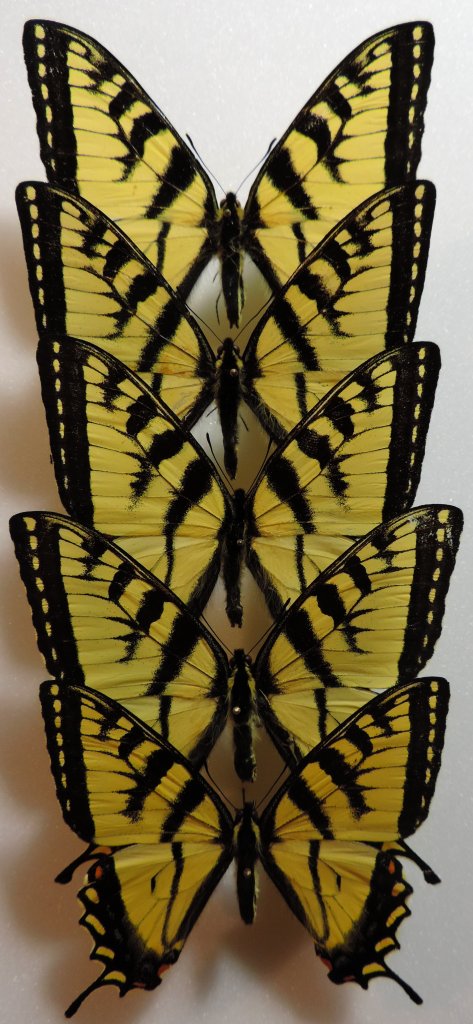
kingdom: Animalia
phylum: Arthropoda
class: Insecta
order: Lepidoptera
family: Papilionidae
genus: Pterourus
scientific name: Pterourus canadensis
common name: Canadian Tiger Swallowtail
